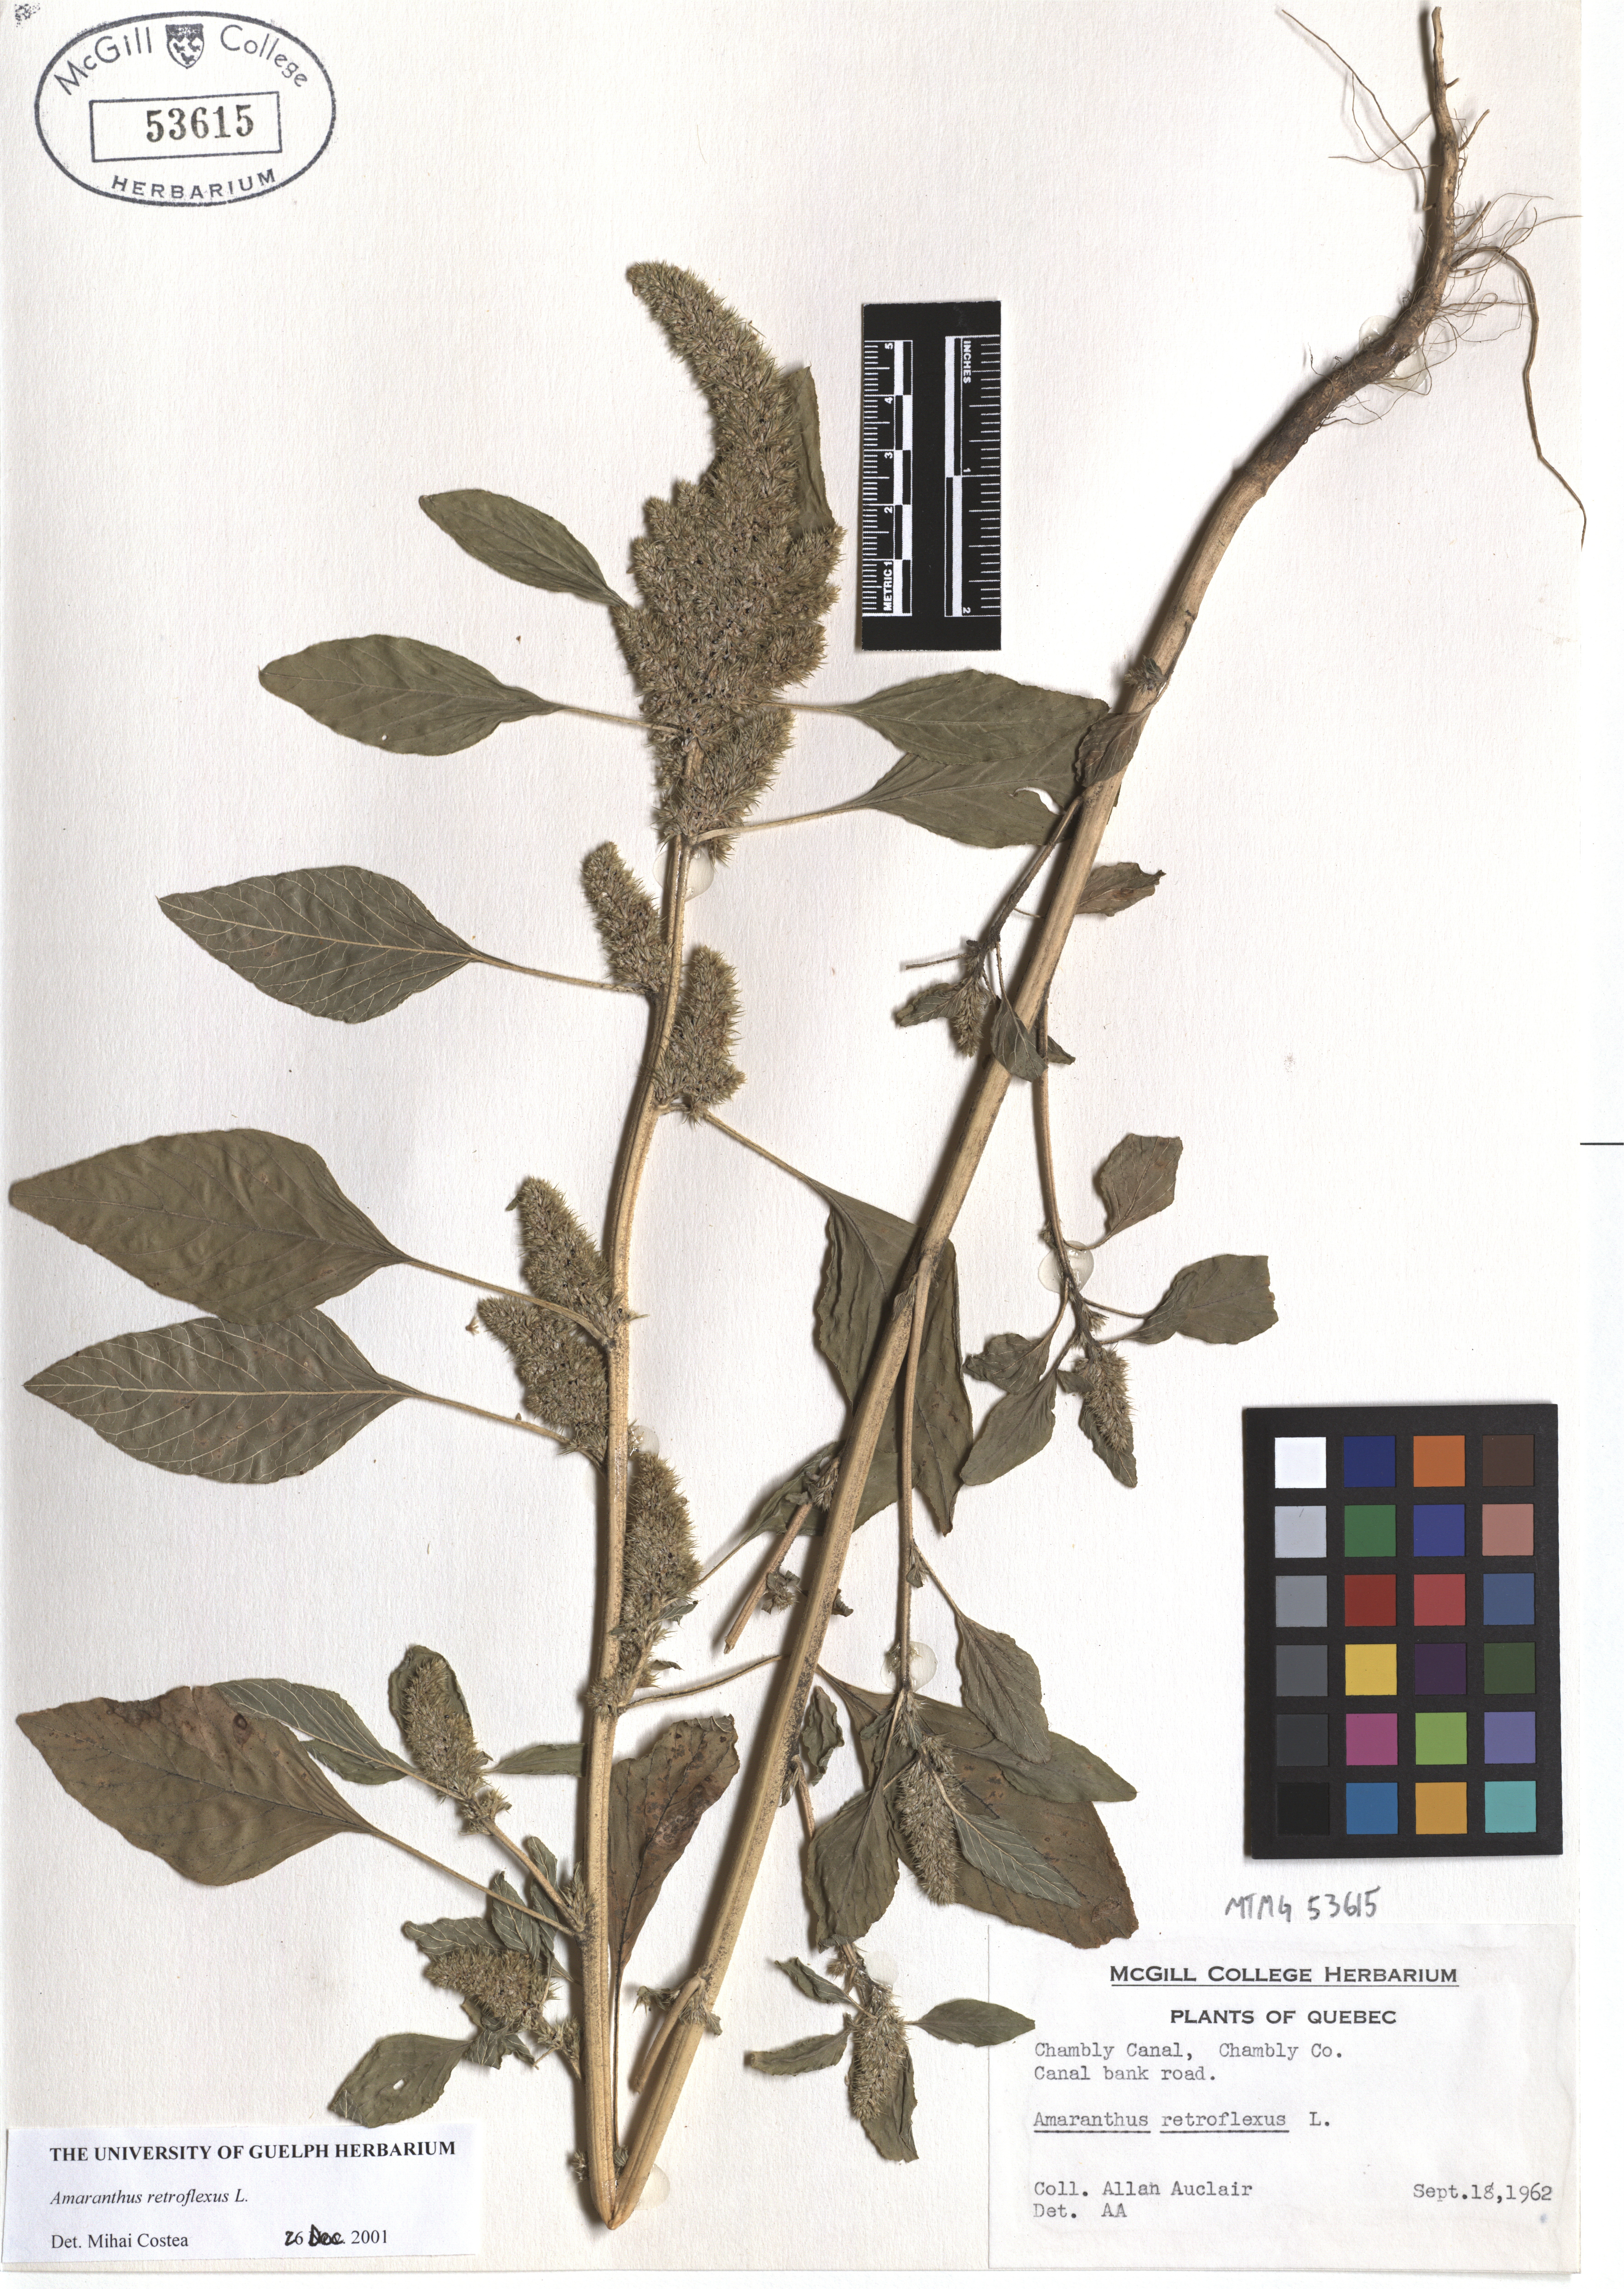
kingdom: Plantae
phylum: Tracheophyta
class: Magnoliopsida
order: Caryophyllales
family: Amaranthaceae
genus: Amaranthus
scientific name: Amaranthus retroflexus
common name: Redroot amaranth
